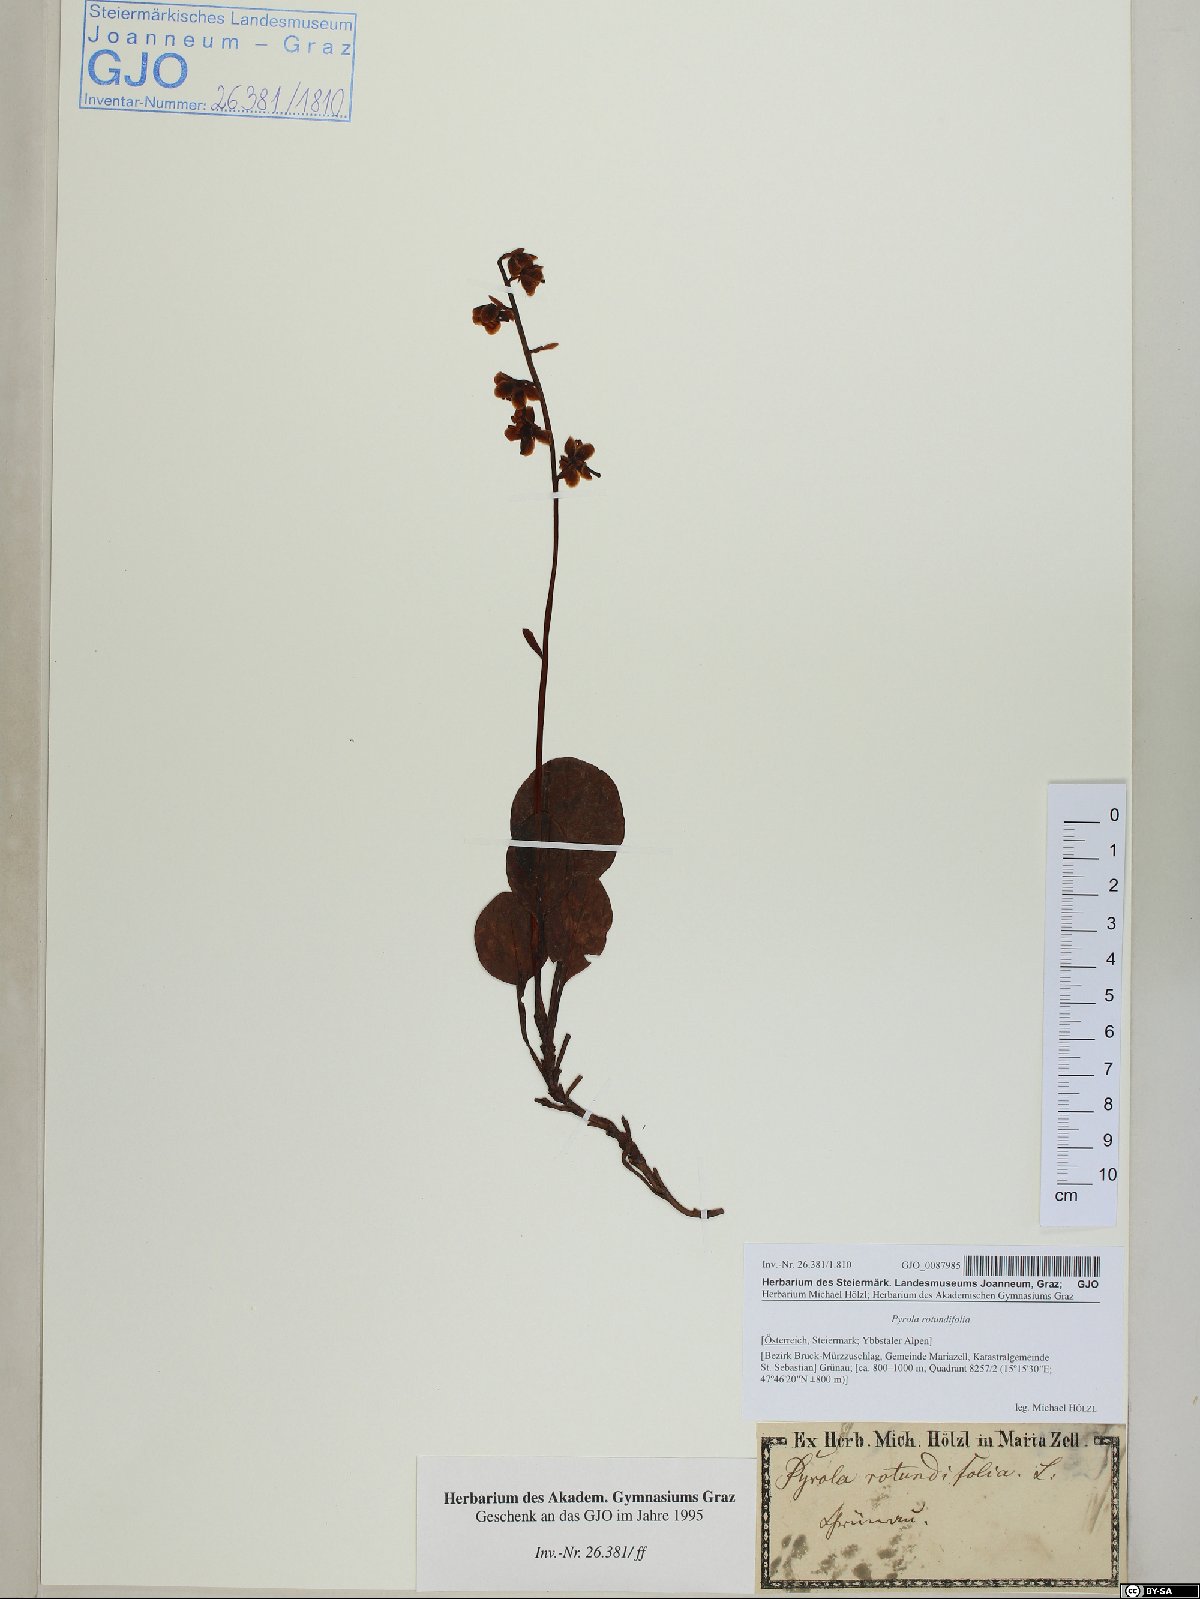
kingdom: Plantae
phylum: Tracheophyta
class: Magnoliopsida
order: Ericales
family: Ericaceae
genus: Pyrola
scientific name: Pyrola rotundifolia
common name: Round-leaved wintergreen
